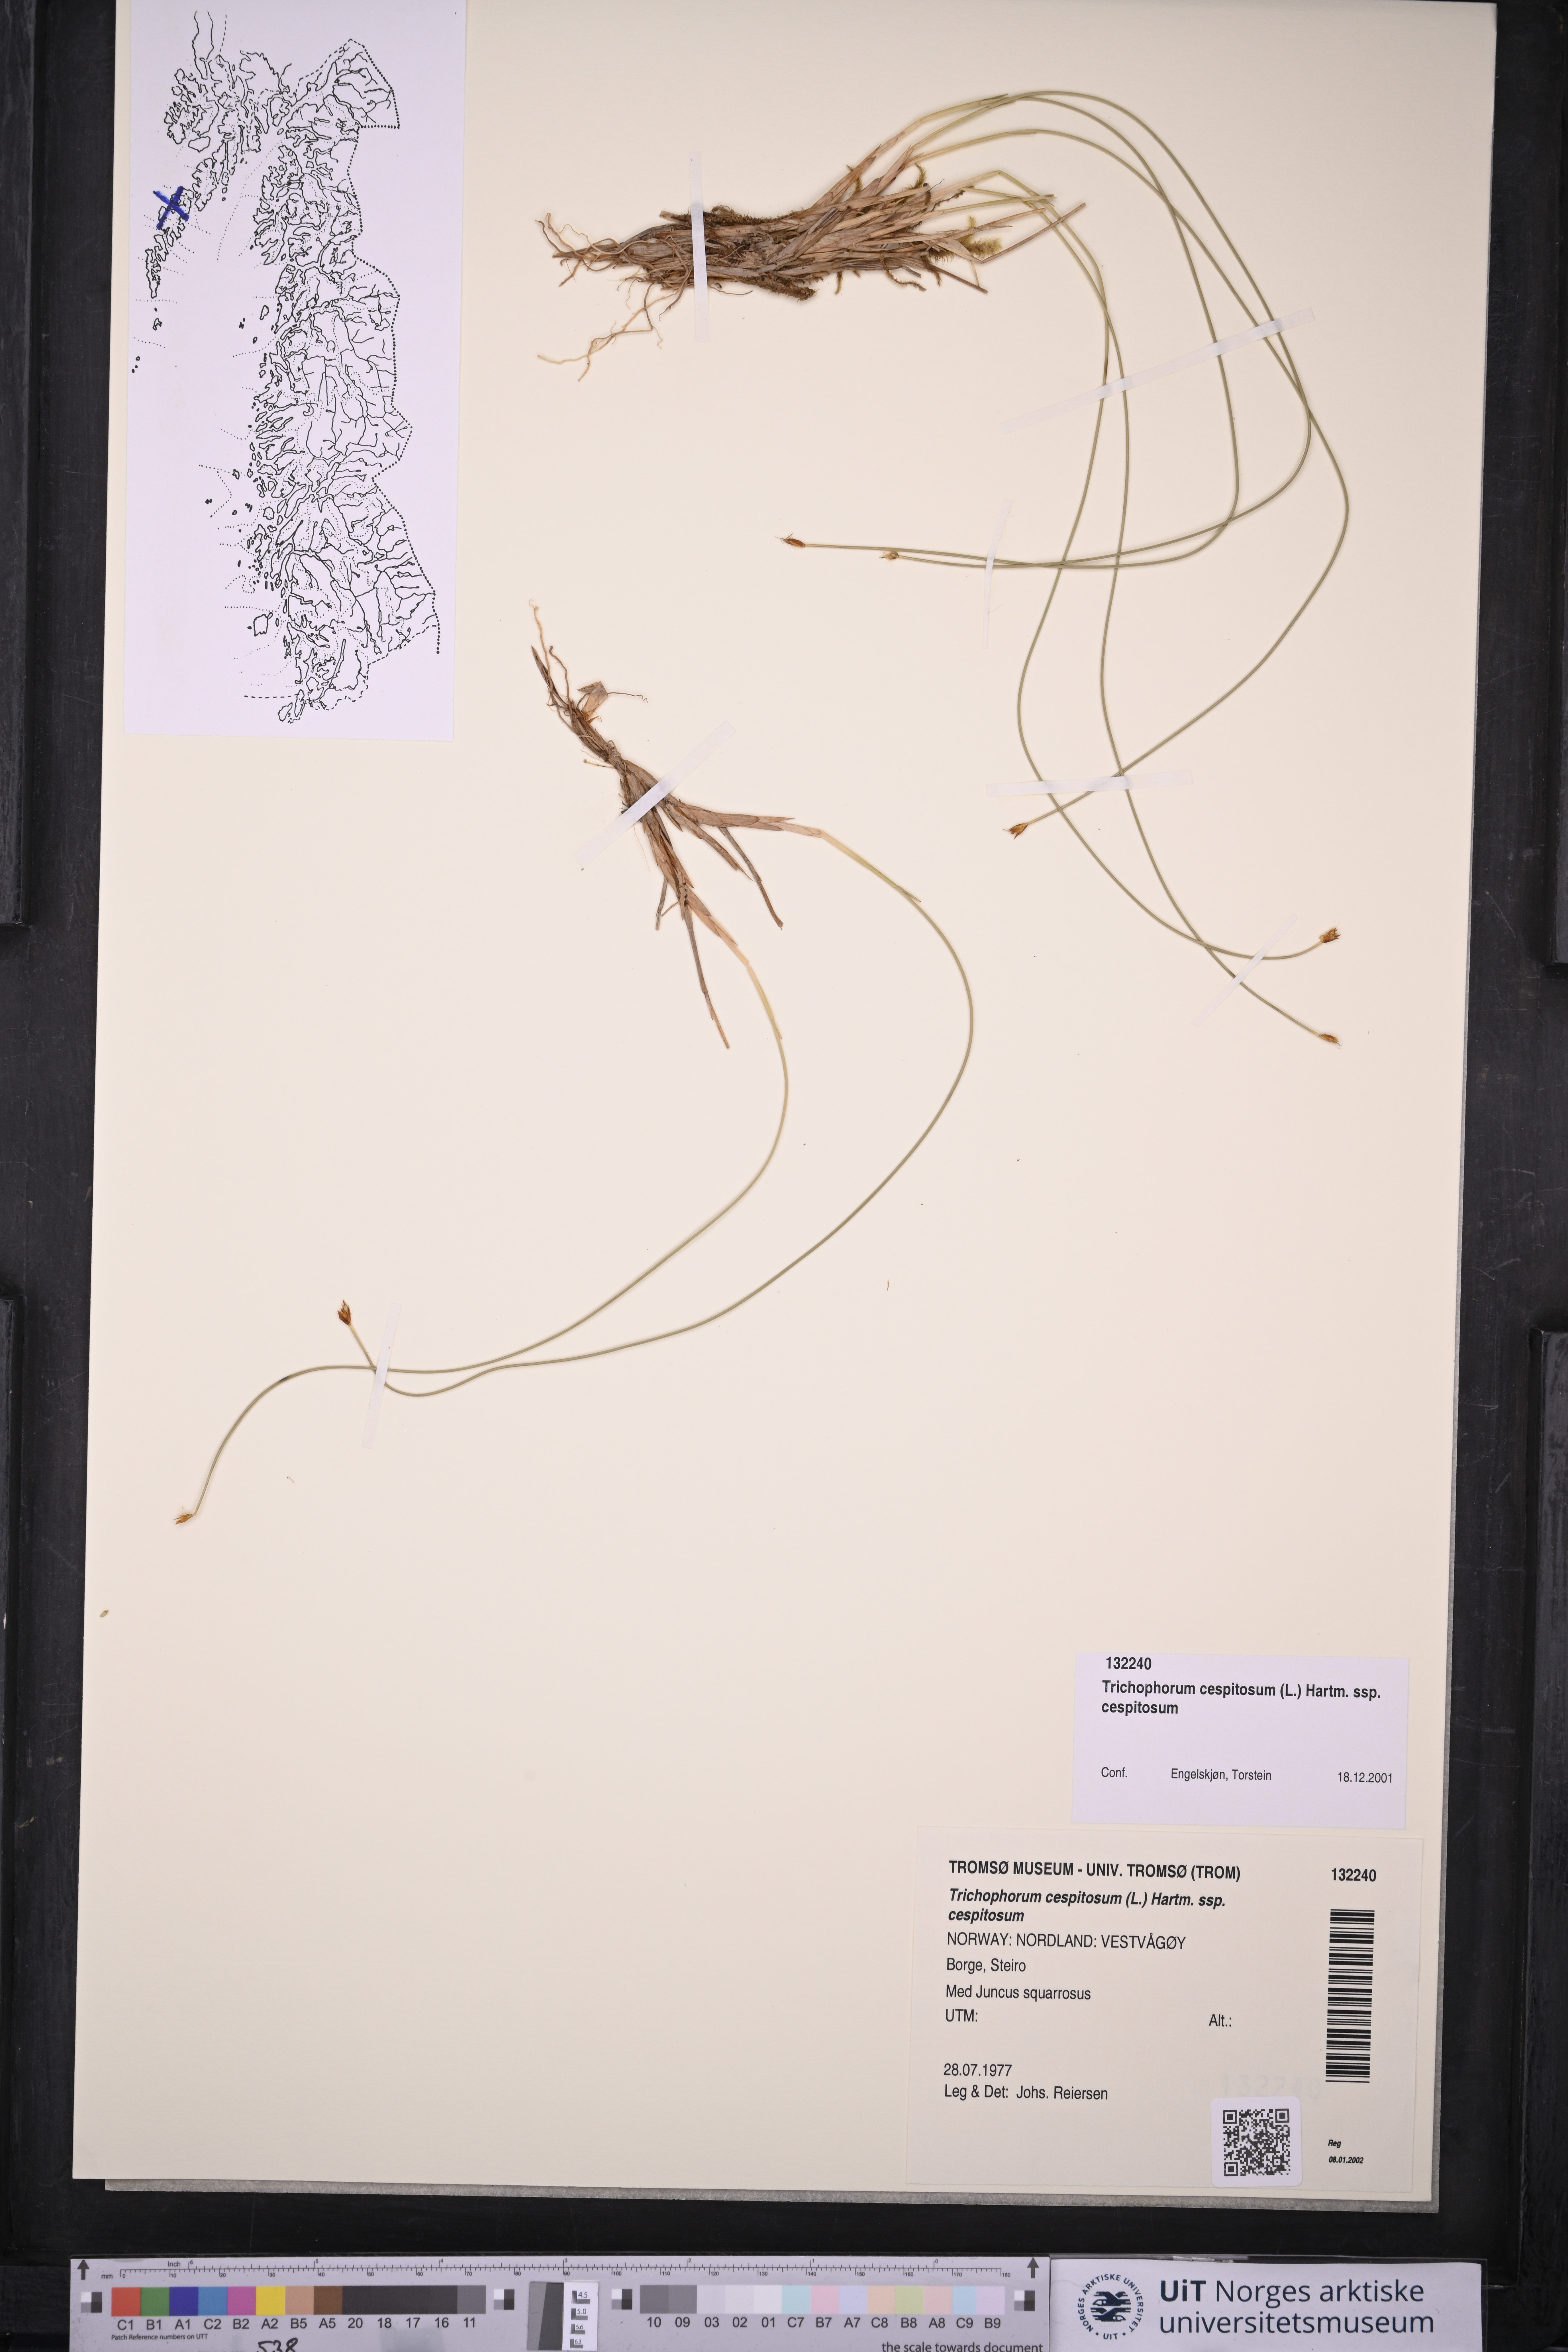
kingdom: Plantae
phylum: Tracheophyta
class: Liliopsida
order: Poales
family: Cyperaceae
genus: Trichophorum
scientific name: Trichophorum cespitosum
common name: Cespitose bulrush
